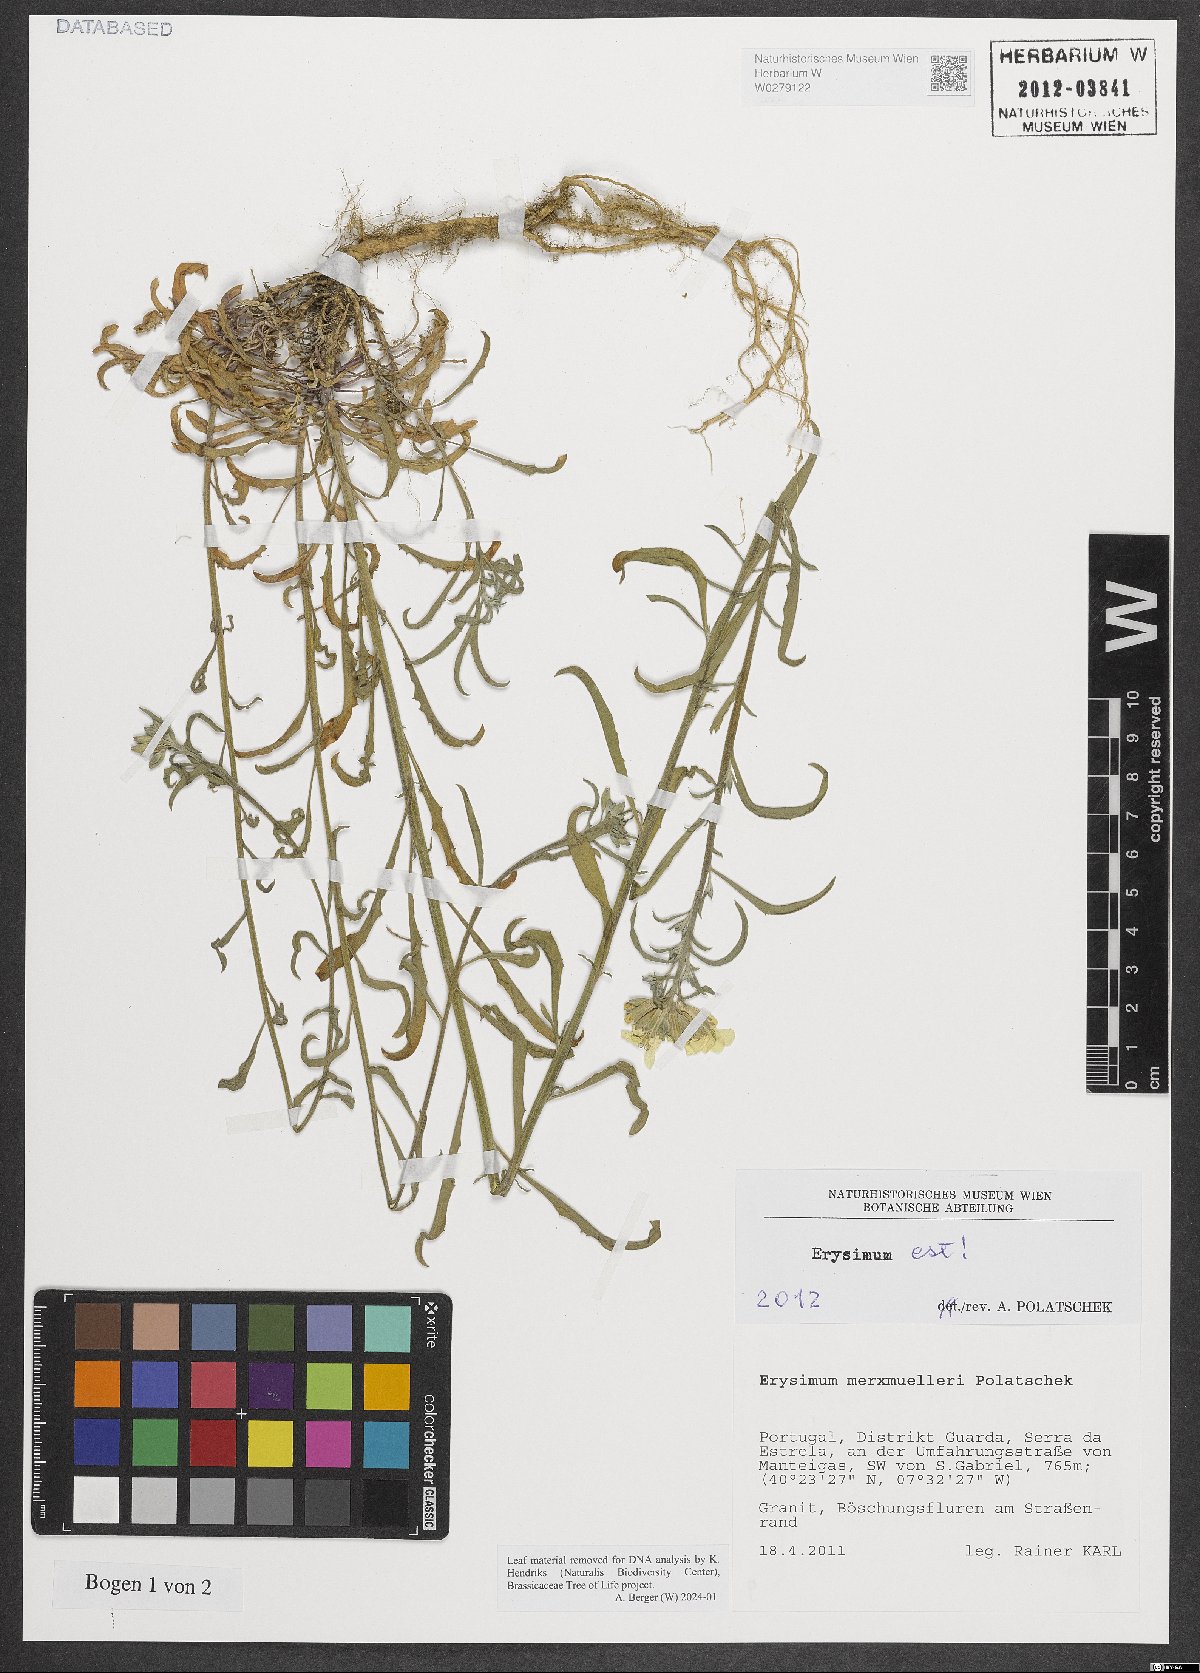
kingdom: Plantae
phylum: Tracheophyta
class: Magnoliopsida
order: Brassicales
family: Brassicaceae
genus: Erysimum
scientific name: Erysimum nevadense
